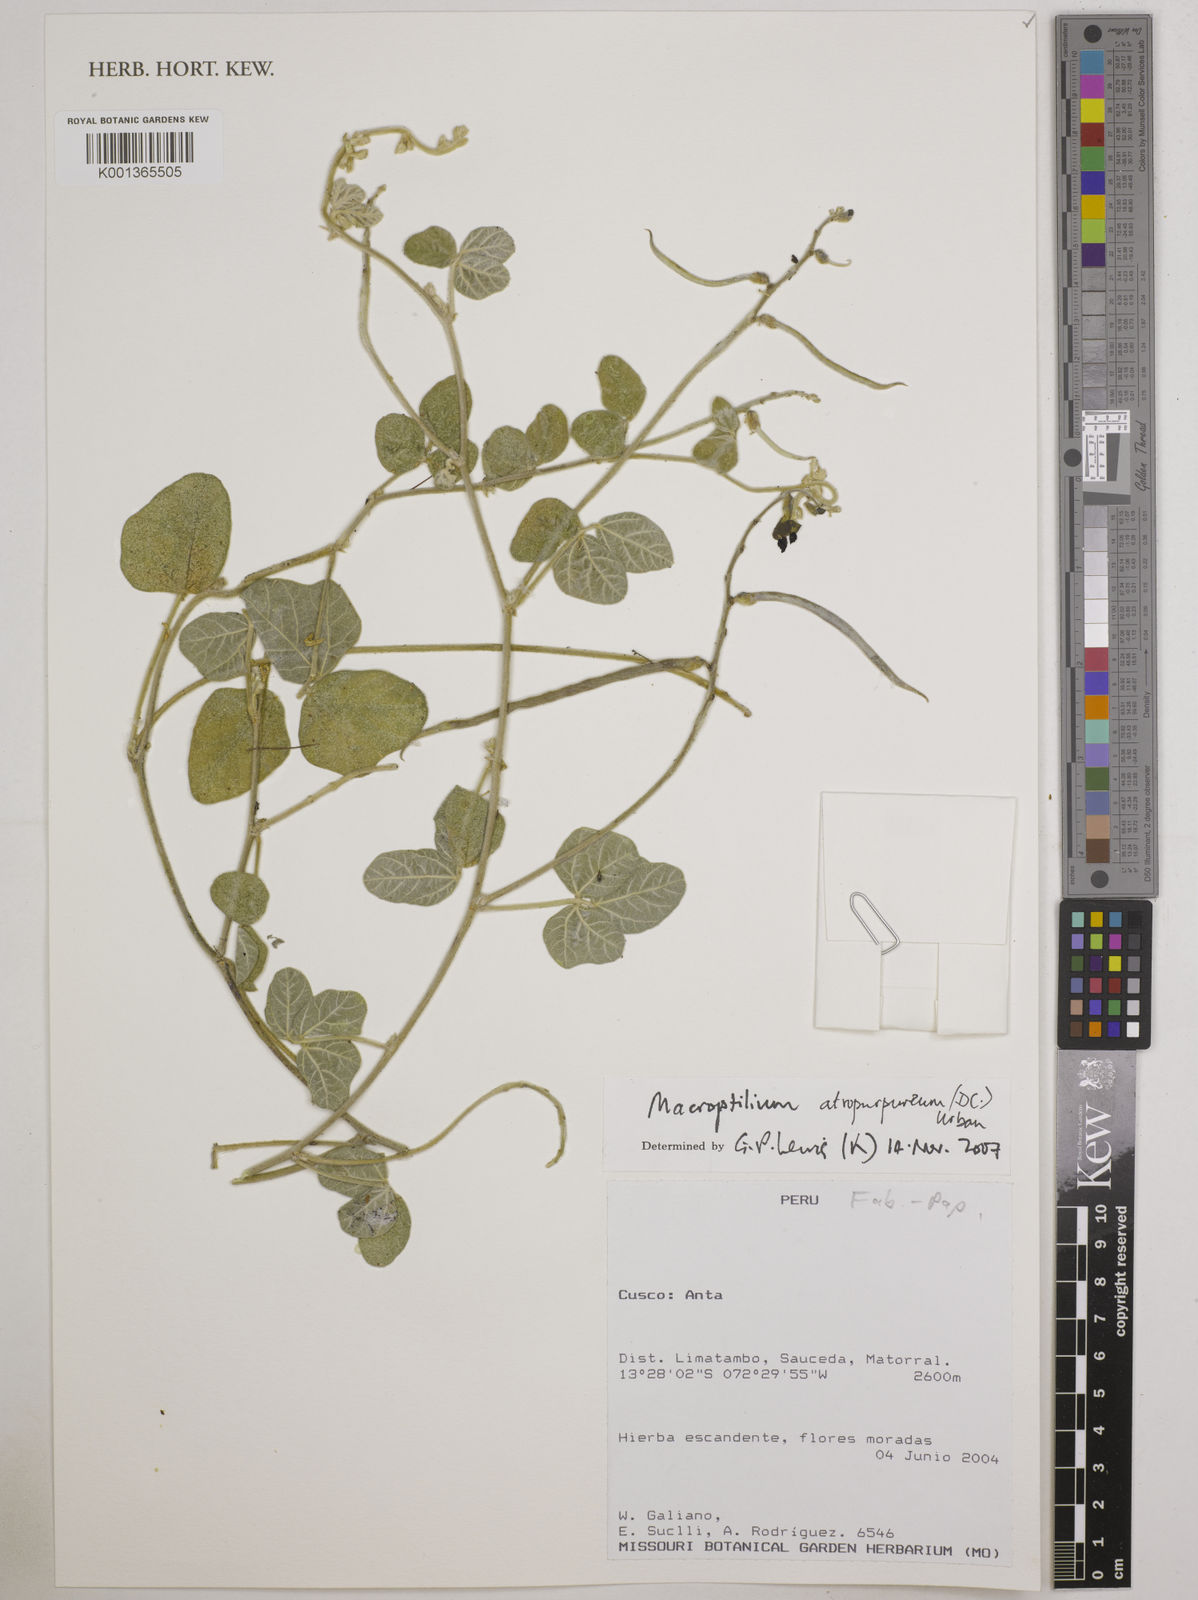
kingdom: Plantae
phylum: Tracheophyta
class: Magnoliopsida
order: Fabales
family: Fabaceae
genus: Macroptilium
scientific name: Macroptilium atropurpureum
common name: Purple bushbean
